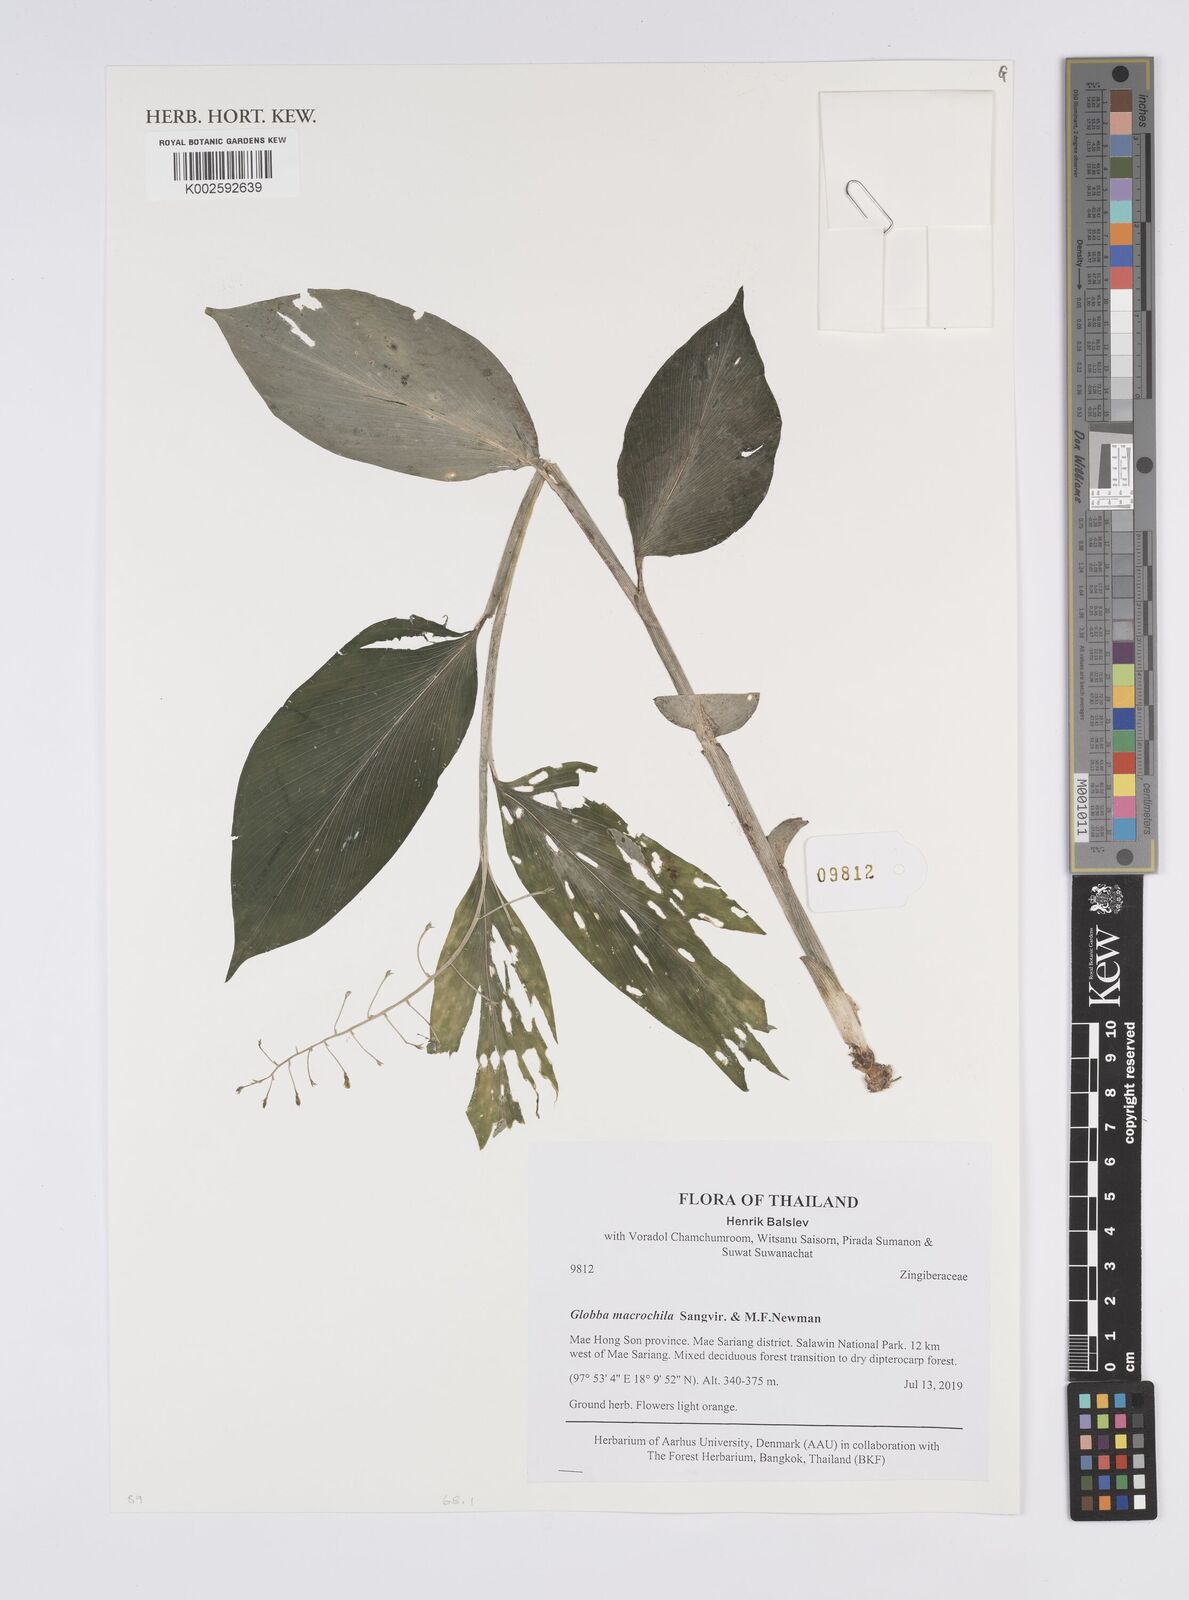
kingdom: Plantae
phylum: Tracheophyta
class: Liliopsida
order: Zingiberales
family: Zingiberaceae
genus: Globba
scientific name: Globba macrochila
